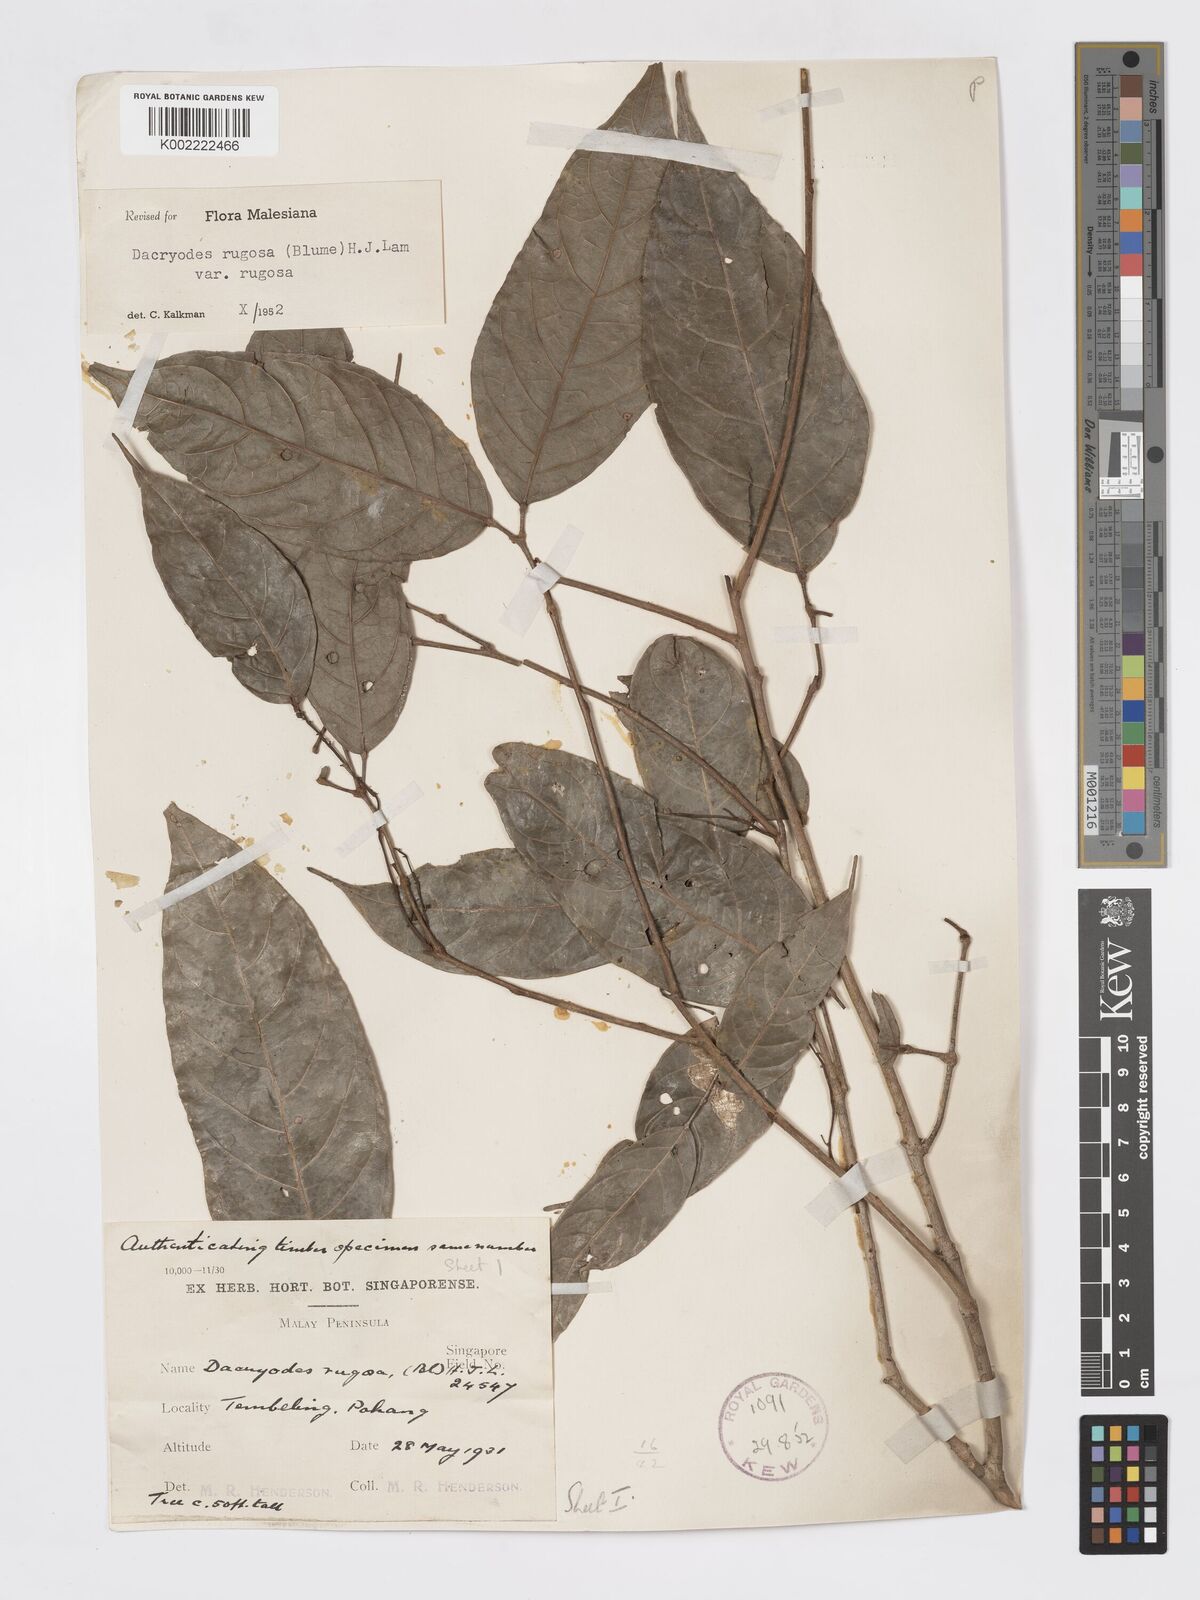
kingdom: Plantae
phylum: Tracheophyta
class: Magnoliopsida
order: Sapindales
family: Burseraceae
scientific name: Burseraceae
